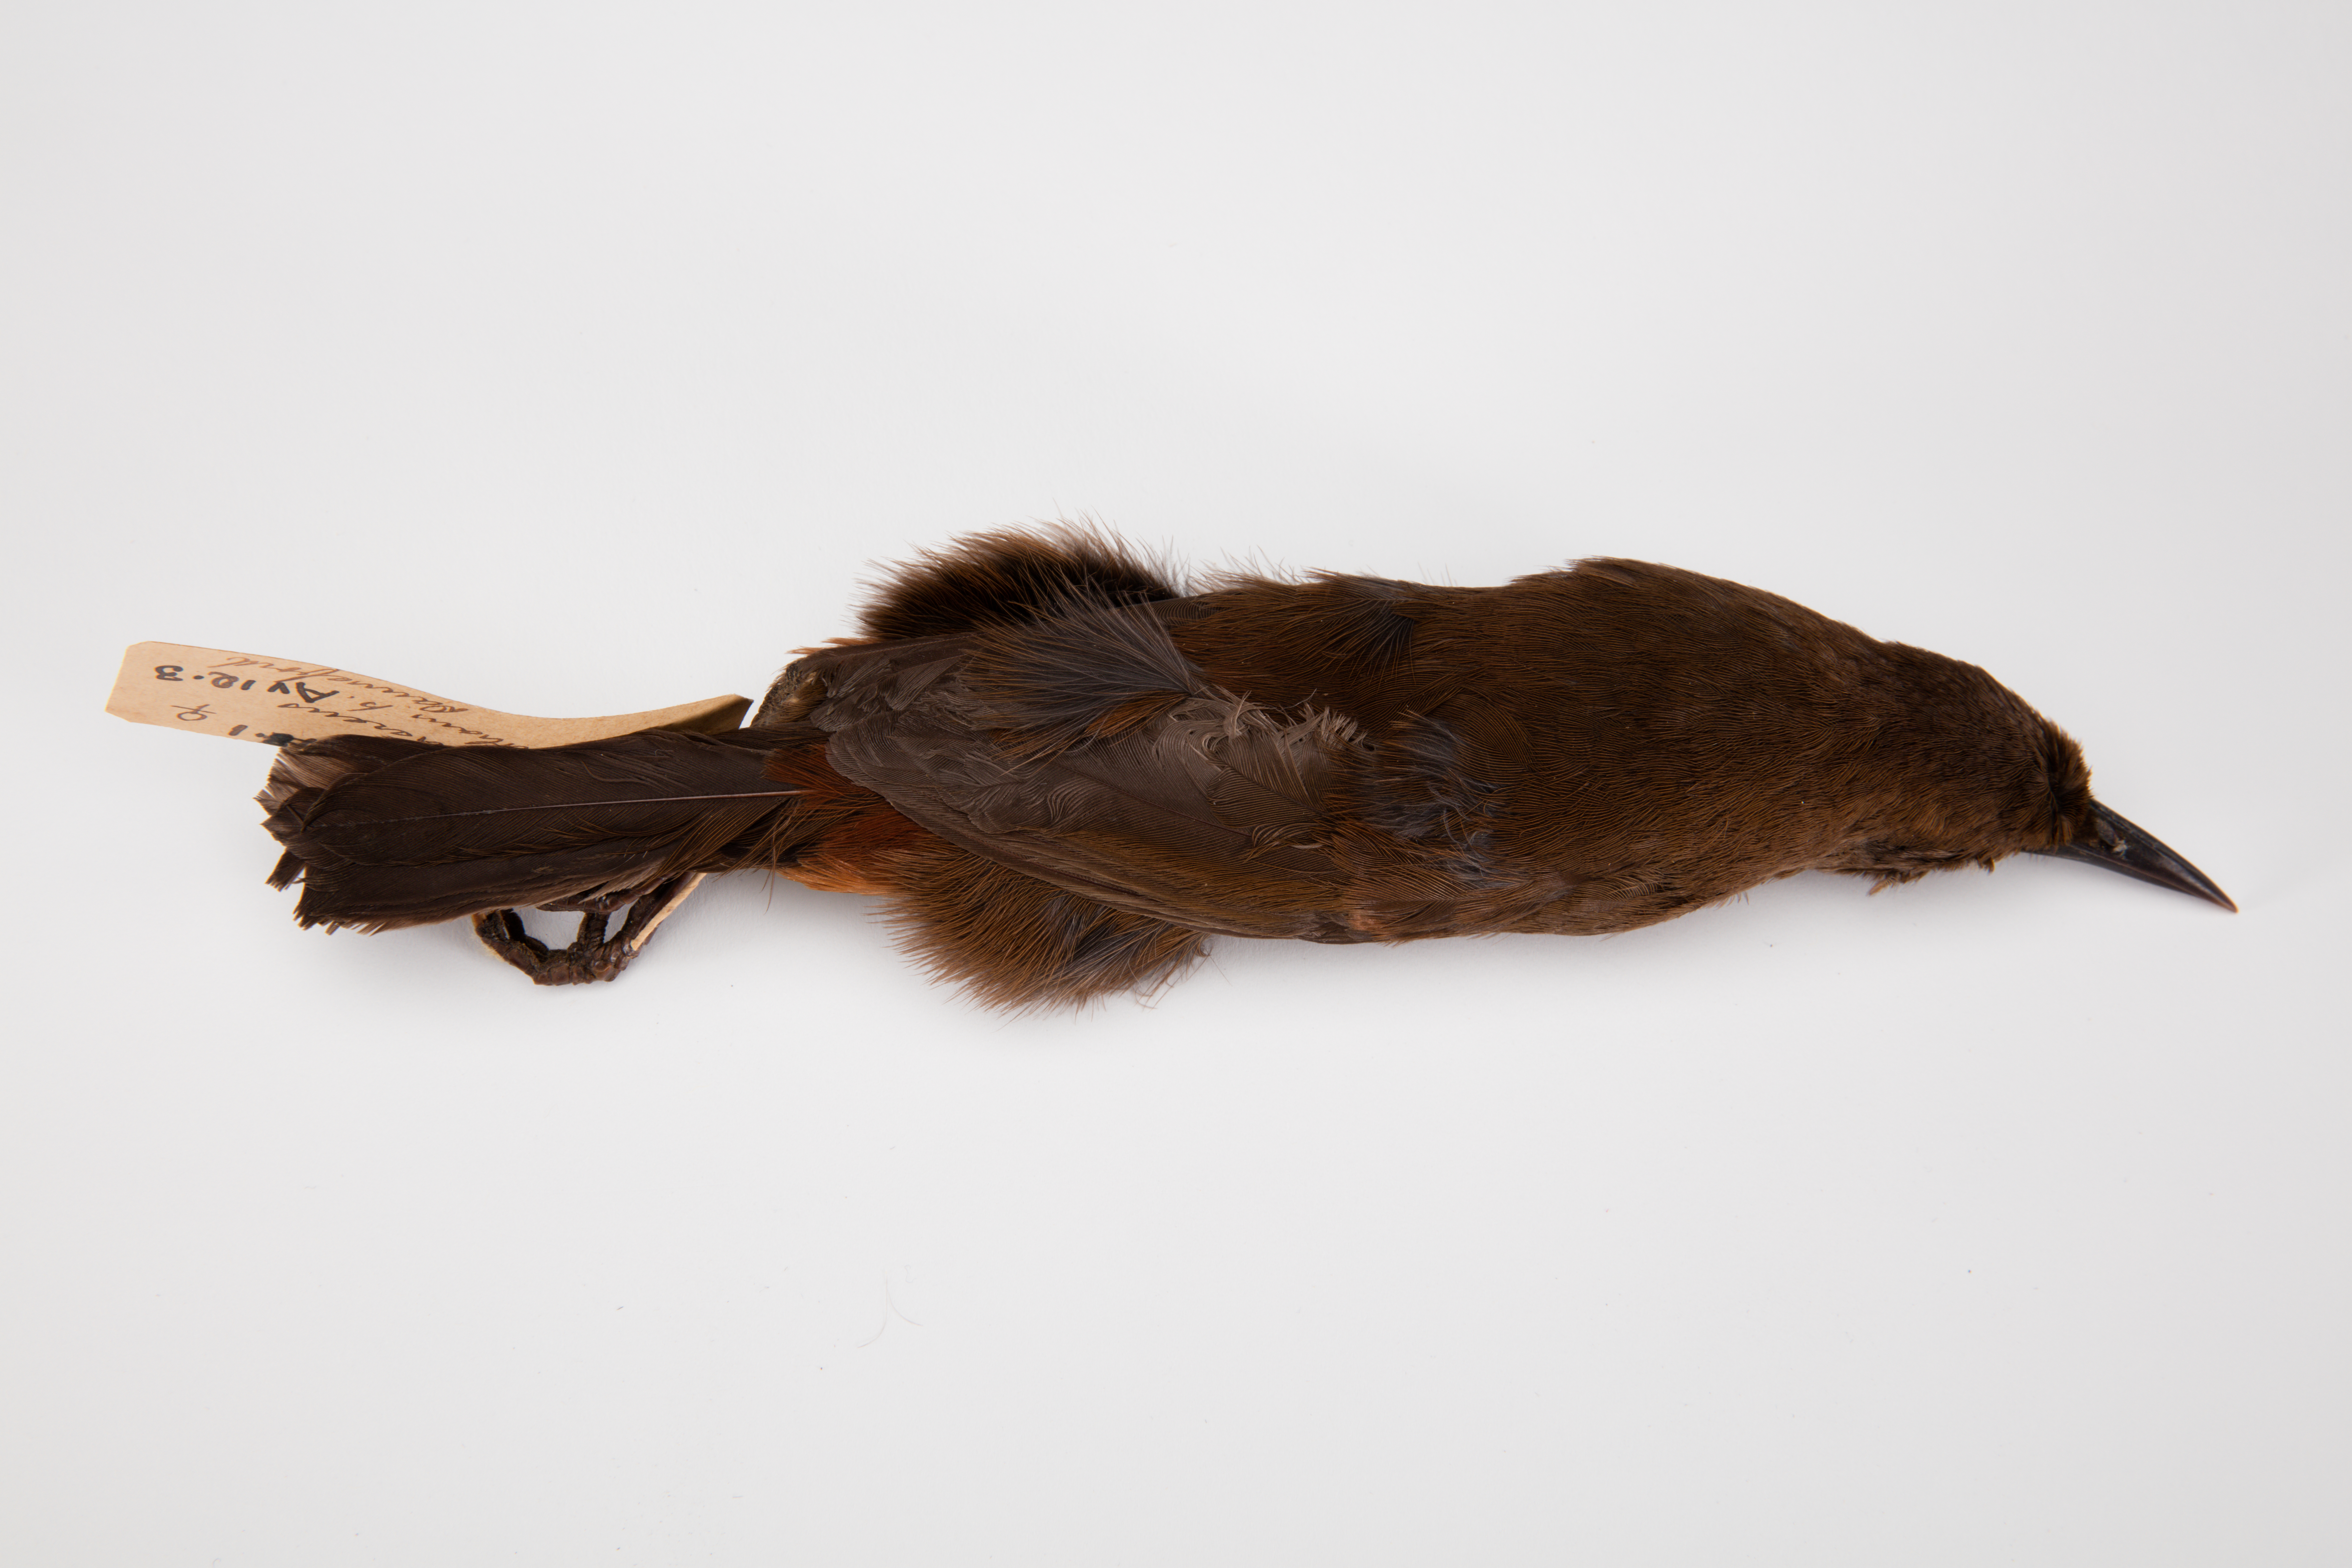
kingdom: Animalia
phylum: Chordata
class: Aves
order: Passeriformes
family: Callaeatidae
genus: Philesturnus
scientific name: Philesturnus carunculatus
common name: South island saddleback
